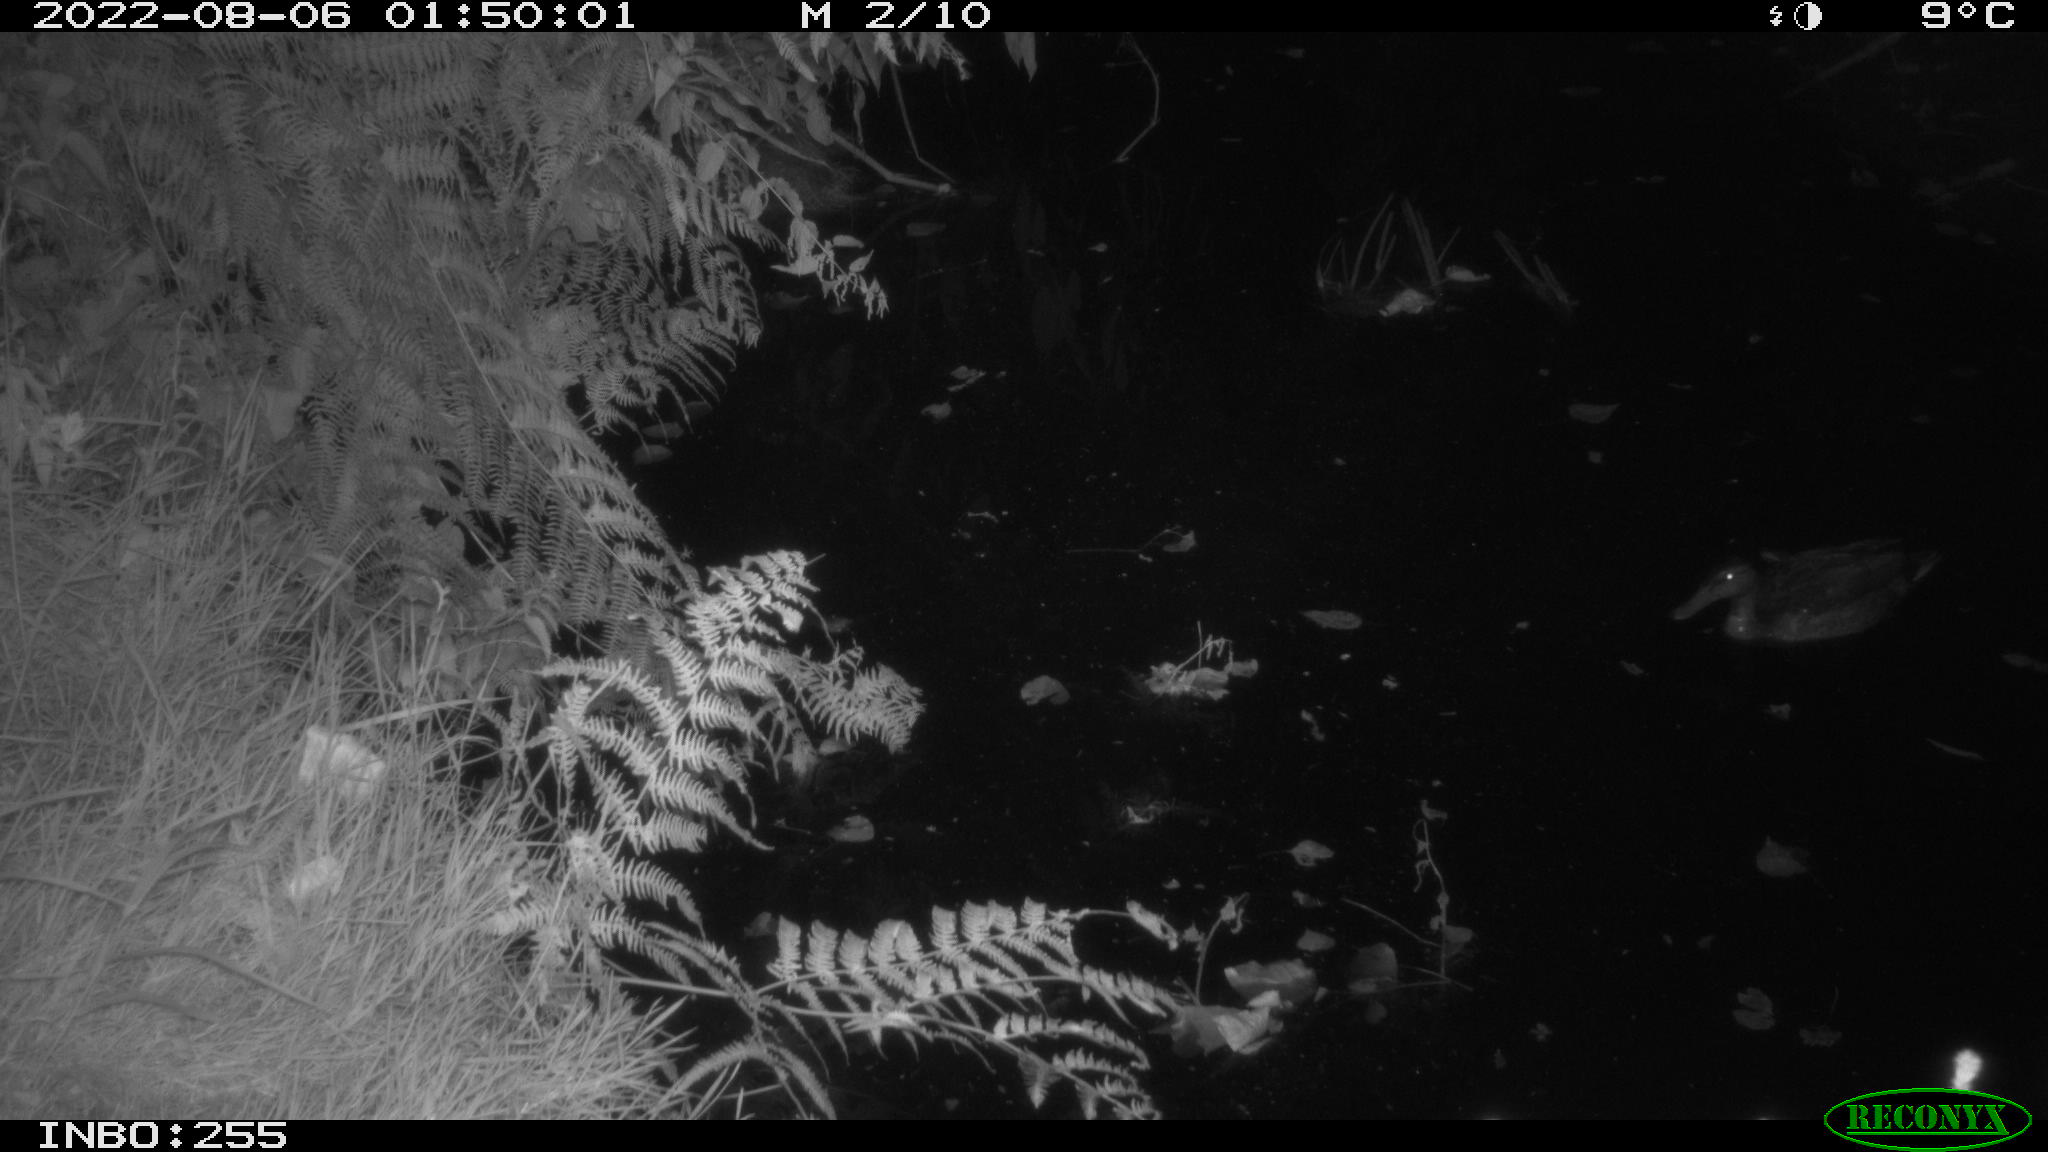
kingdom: Animalia
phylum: Chordata
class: Aves
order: Anseriformes
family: Anatidae
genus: Anas
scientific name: Anas platyrhynchos
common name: Mallard
